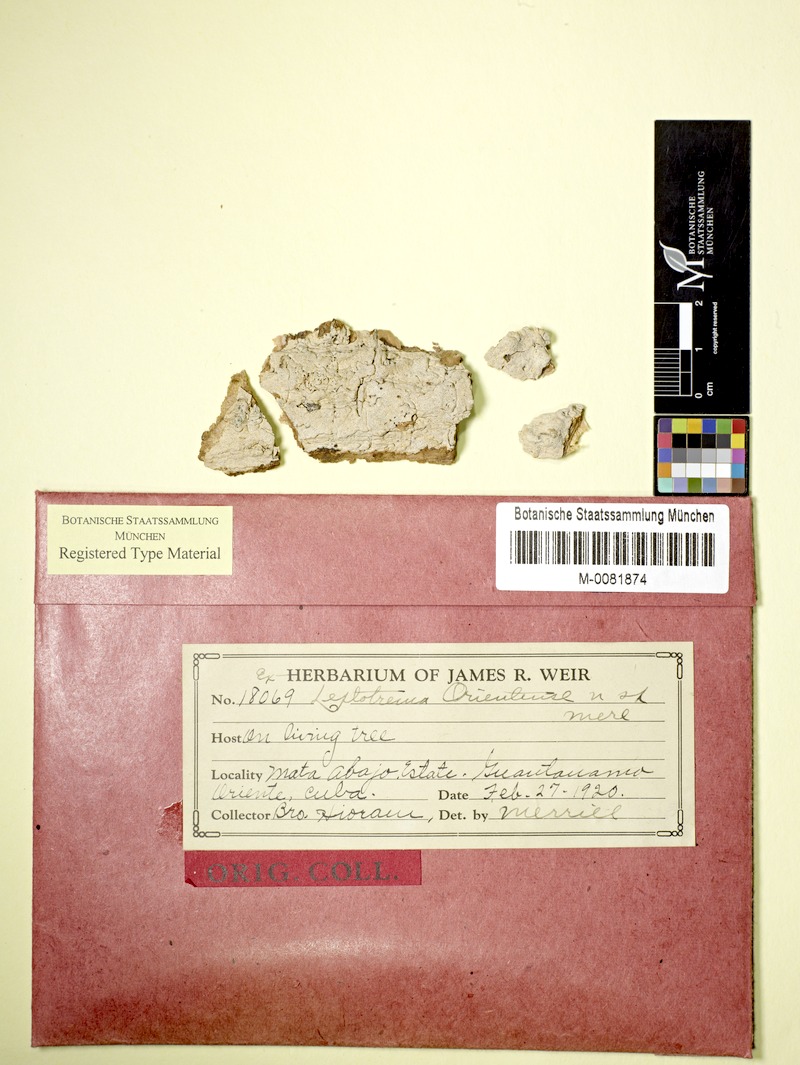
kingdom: Fungi
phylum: Ascomycota
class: Lecanoromycetes
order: Ostropales
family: Graphidaceae
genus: Leptotrema
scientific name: Leptotrema orientense
